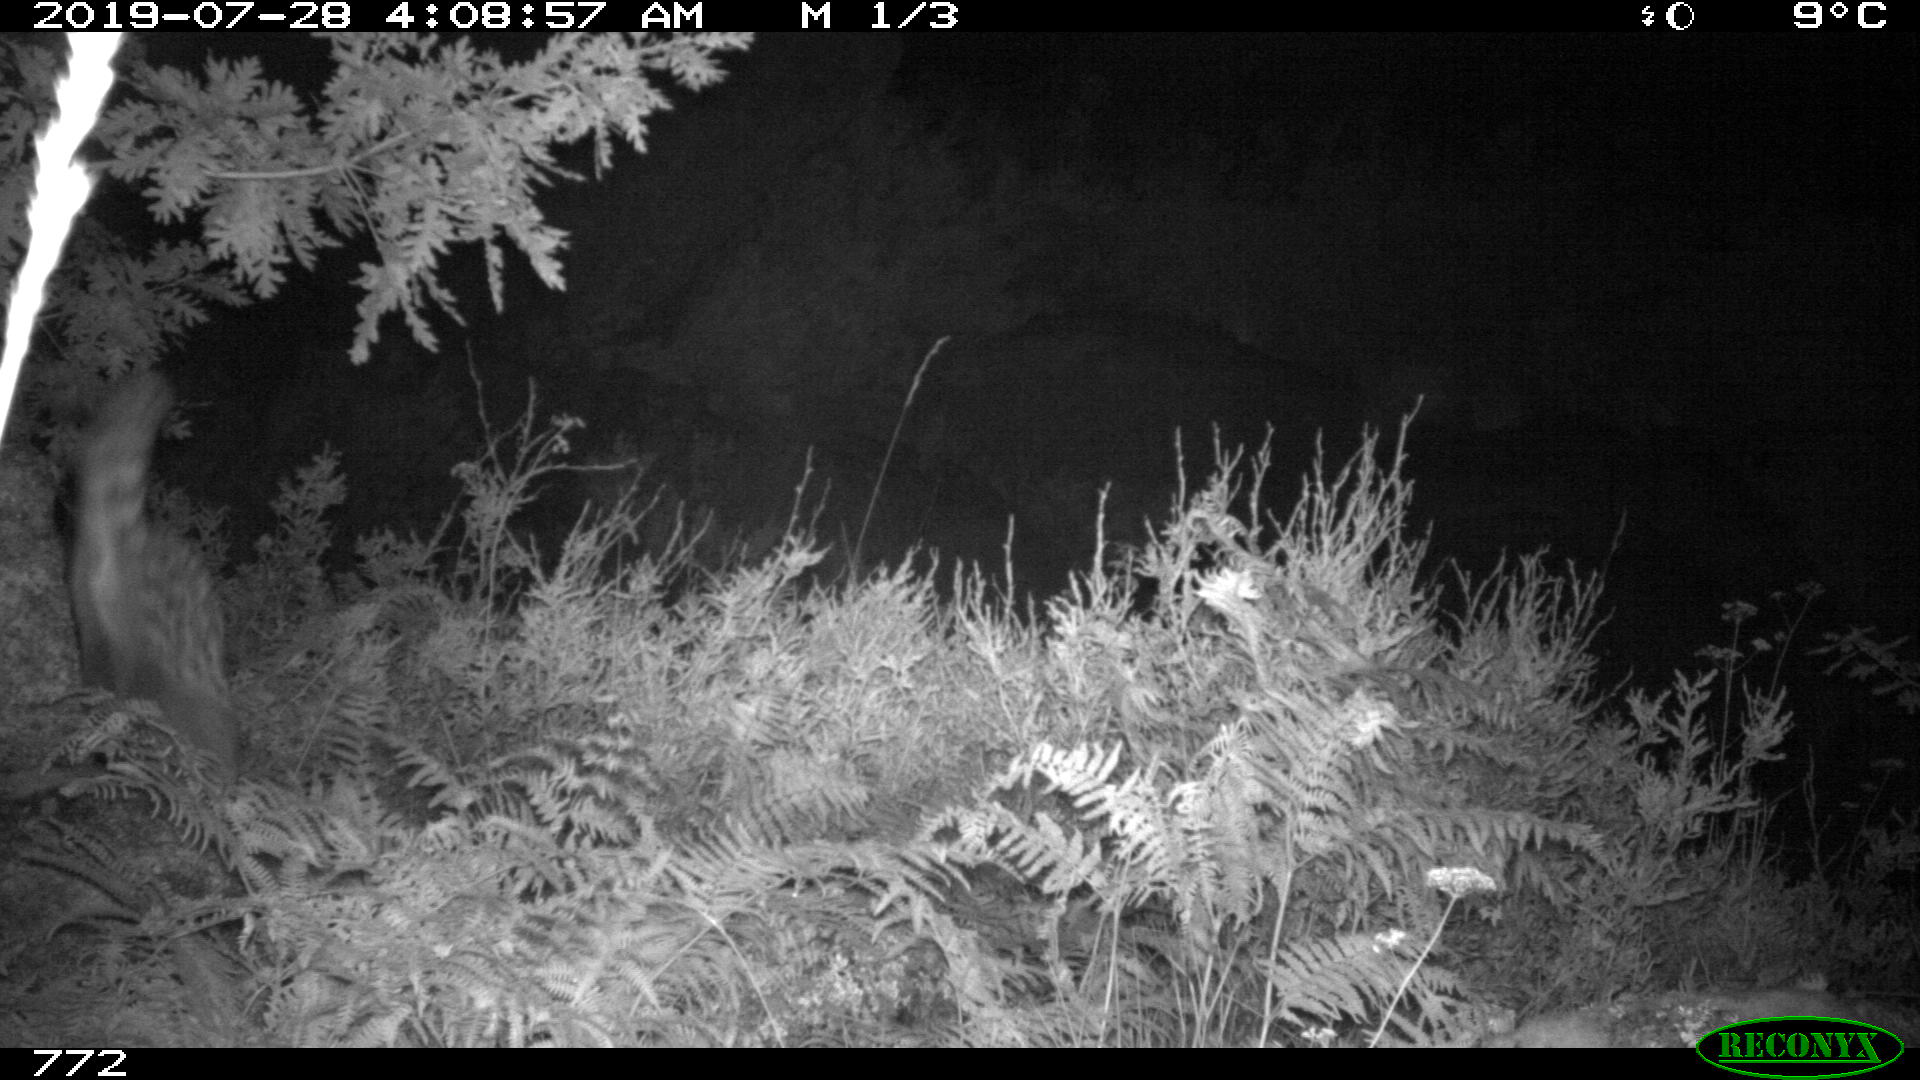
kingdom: Animalia
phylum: Chordata
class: Mammalia
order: Carnivora
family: Viverridae
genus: Genetta
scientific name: Genetta genetta
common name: Common genet
